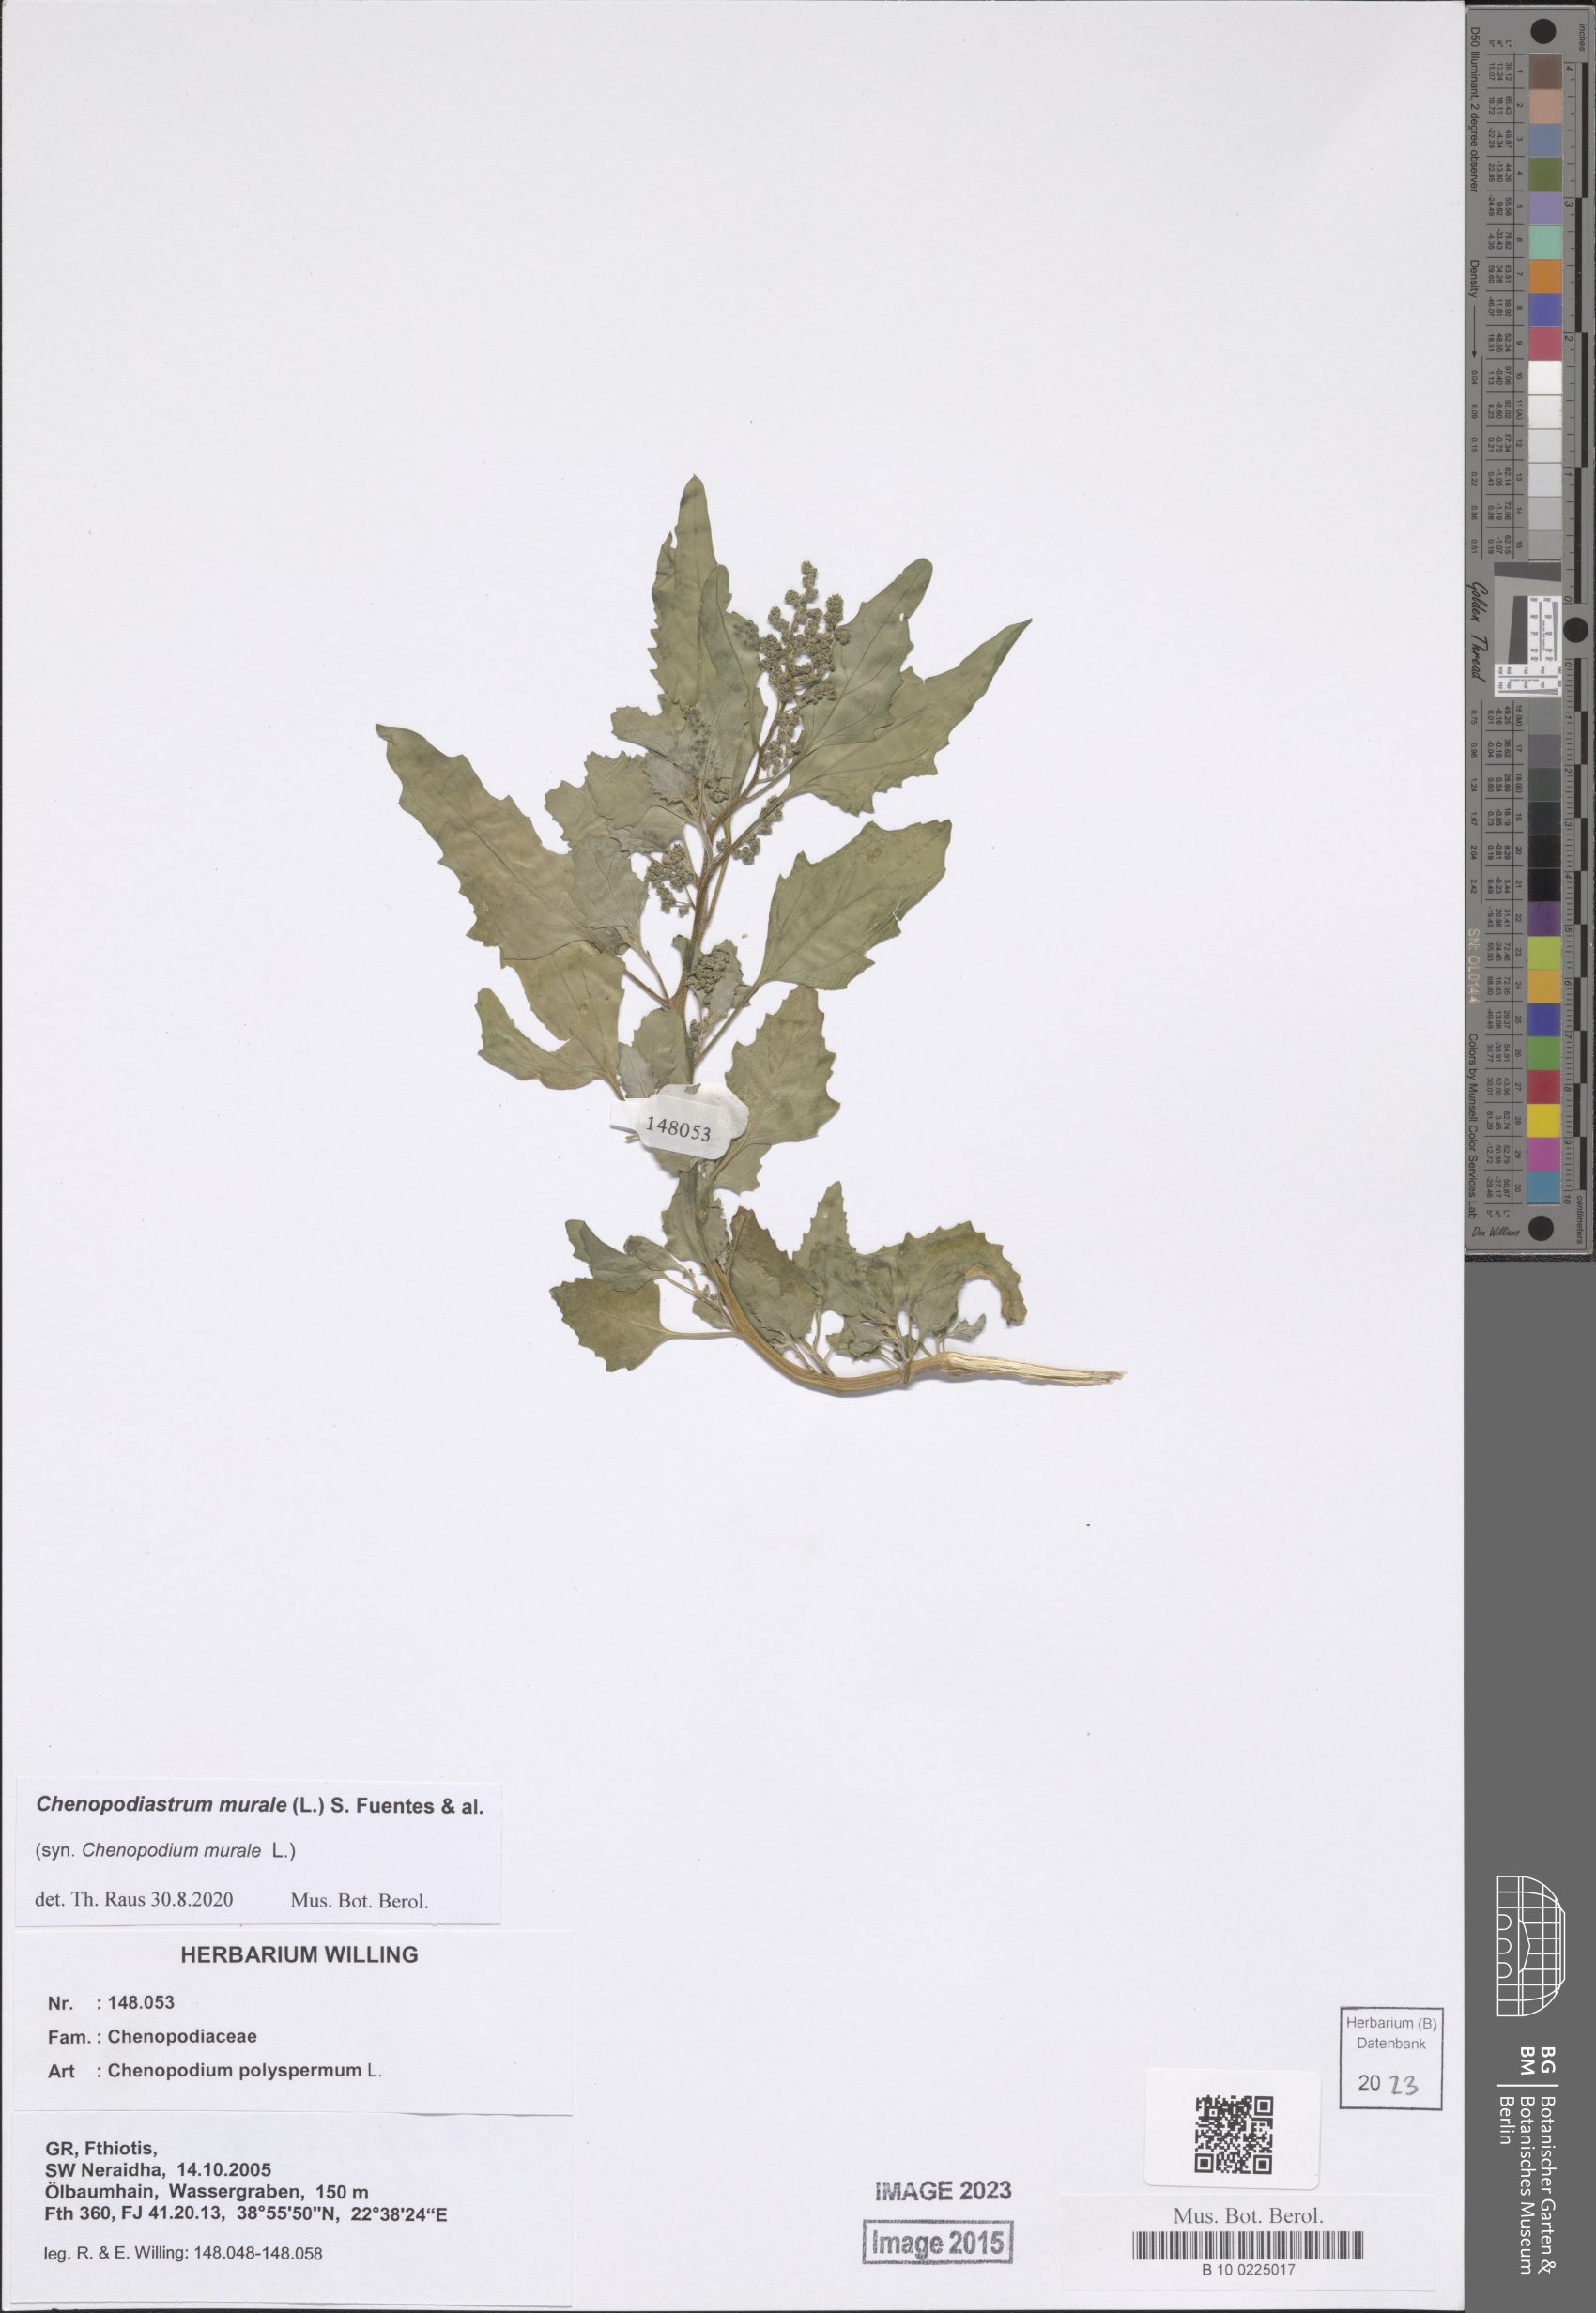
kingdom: Plantae
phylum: Tracheophyta
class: Magnoliopsida
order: Caryophyllales
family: Amaranthaceae
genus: Chenopodiastrum
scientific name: Chenopodiastrum murale
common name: Sowbane
